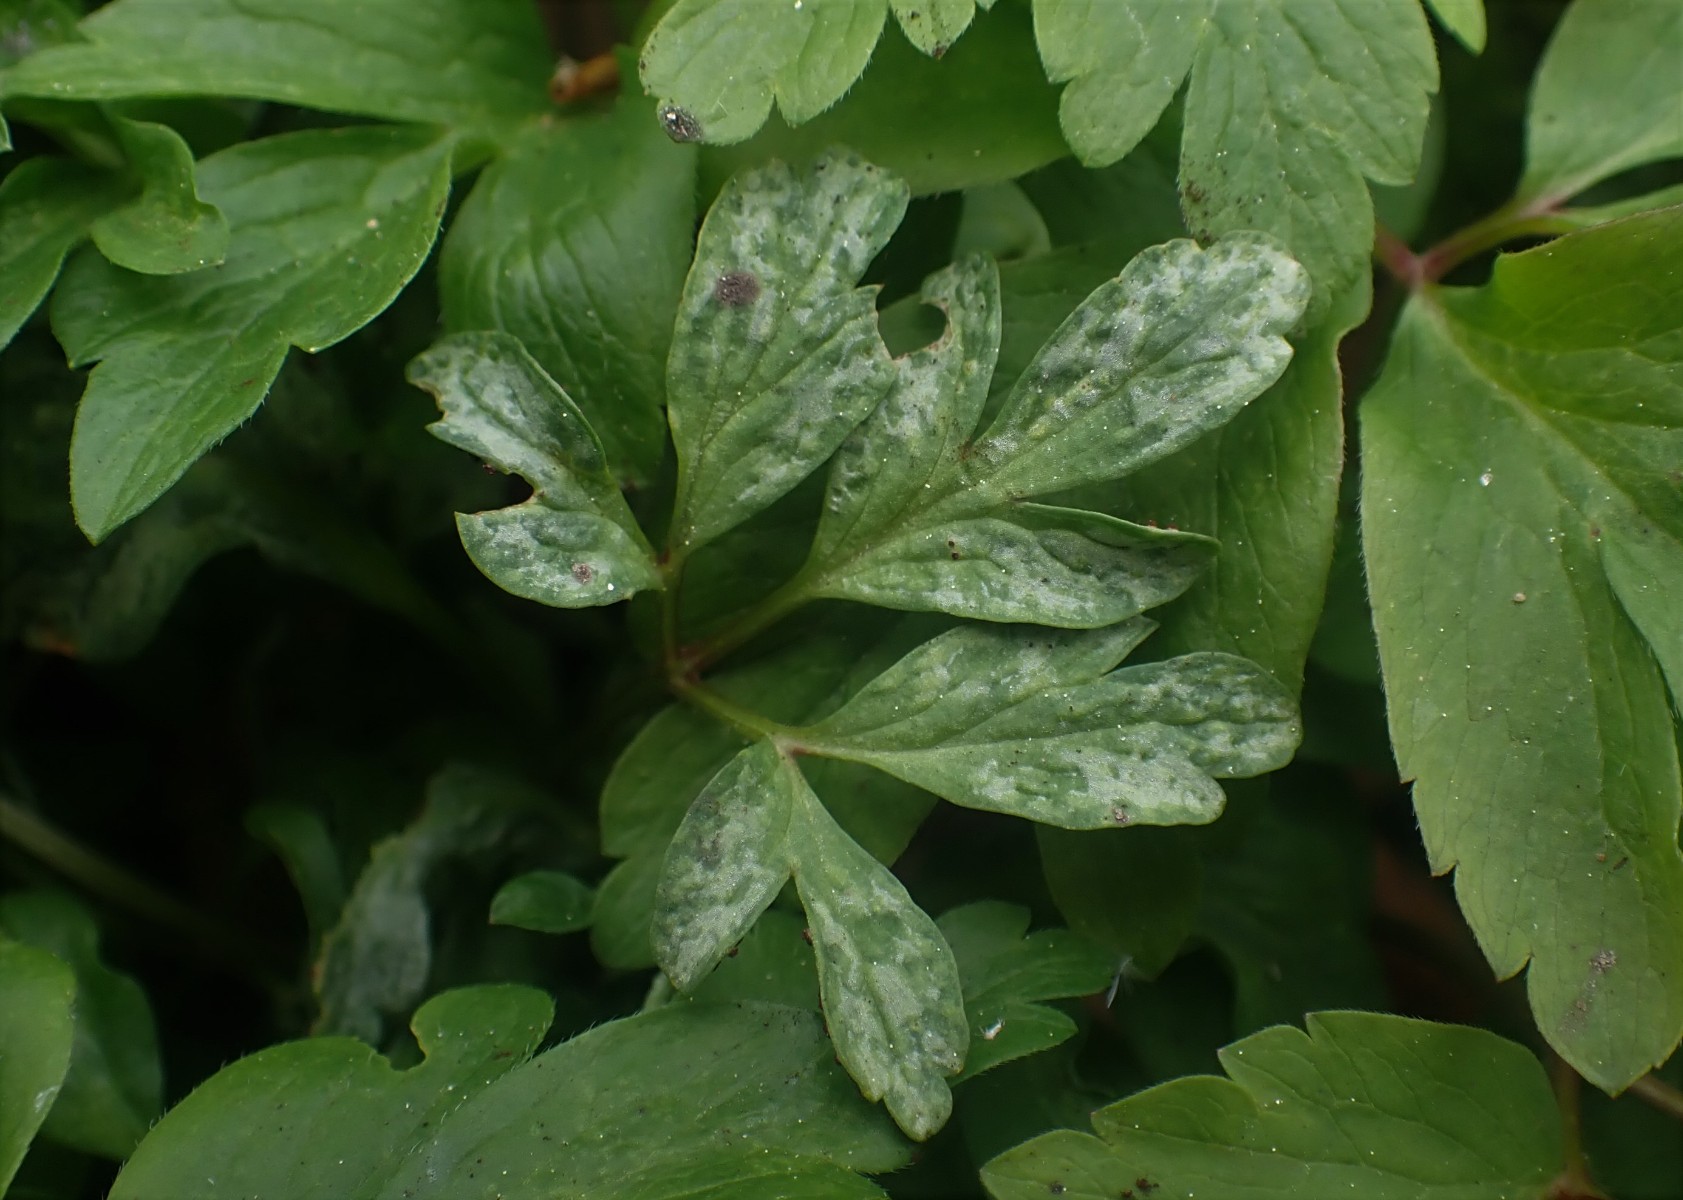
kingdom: Fungi
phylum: Basidiomycota
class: Pucciniomycetes
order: Pucciniales
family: Tranzscheliaceae
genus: Tranzschelia
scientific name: Tranzschelia anemones
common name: anemone-knæksporerust
